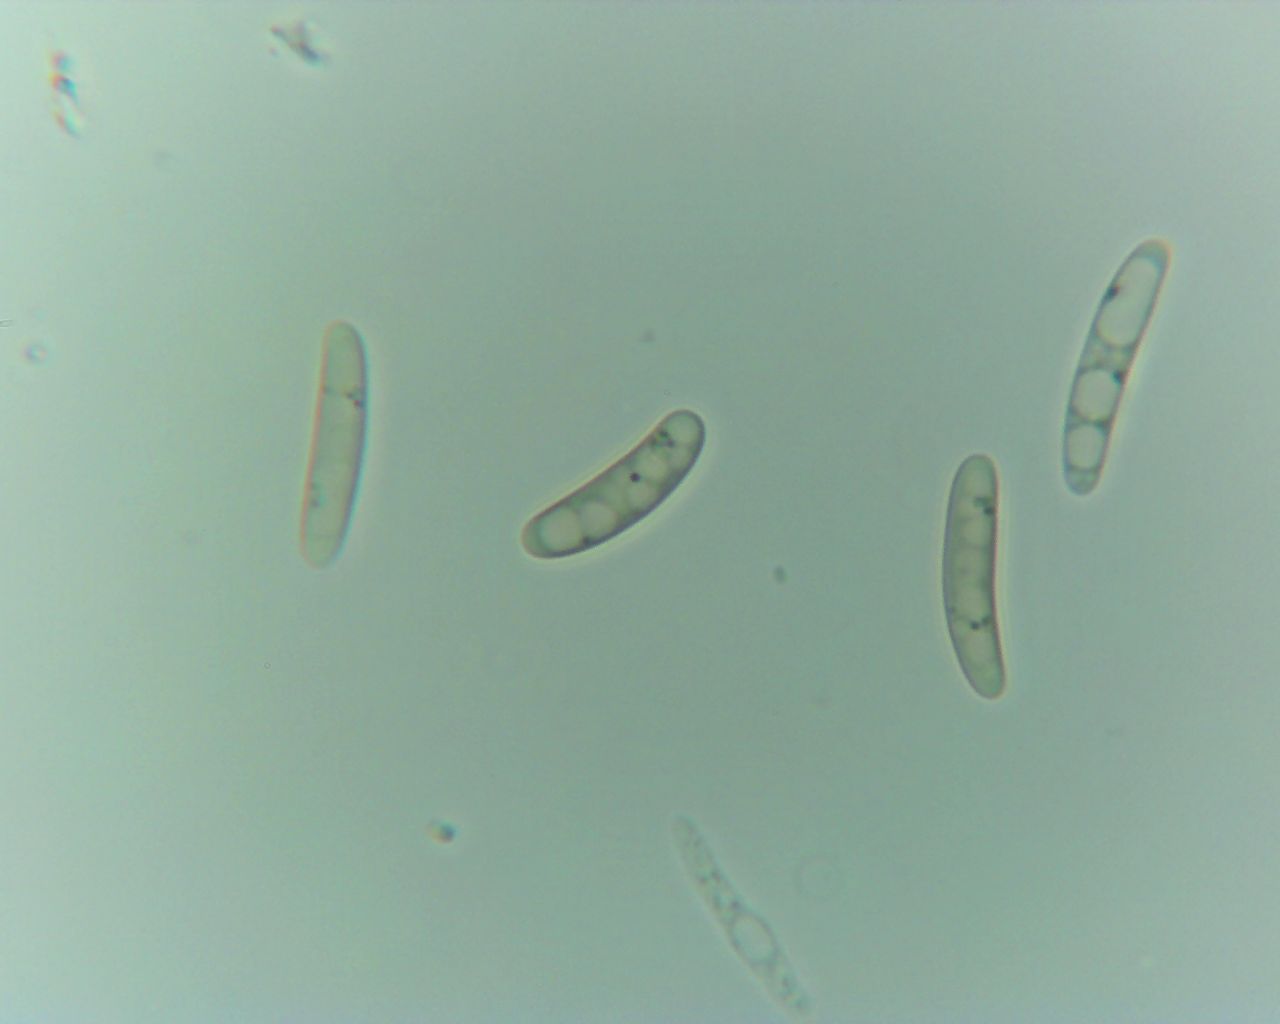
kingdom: Fungi
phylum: Ascomycota
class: Leotiomycetes
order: Helotiales
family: Helotiaceae
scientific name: Helotiaceae
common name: stilkskivefamilien
